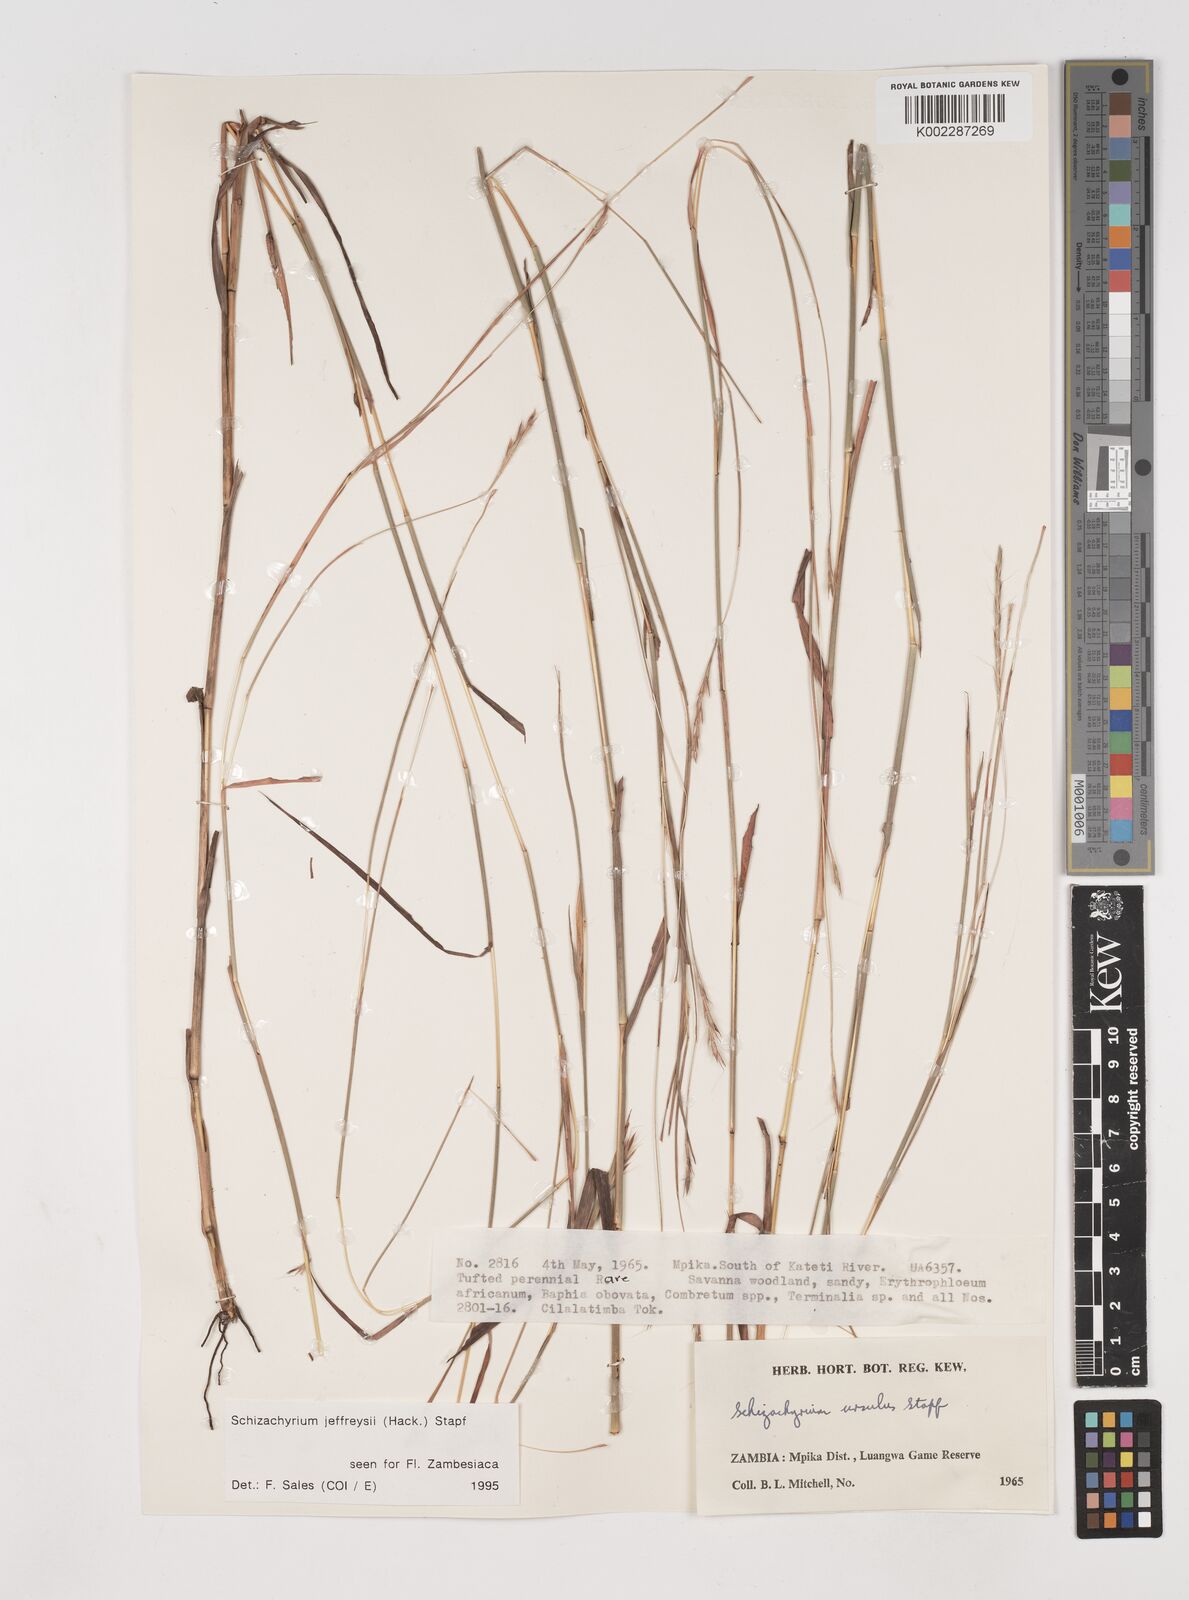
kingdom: Plantae
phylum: Tracheophyta
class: Liliopsida
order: Poales
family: Poaceae
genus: Schizachyrium
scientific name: Schizachyrium jeffreysii
